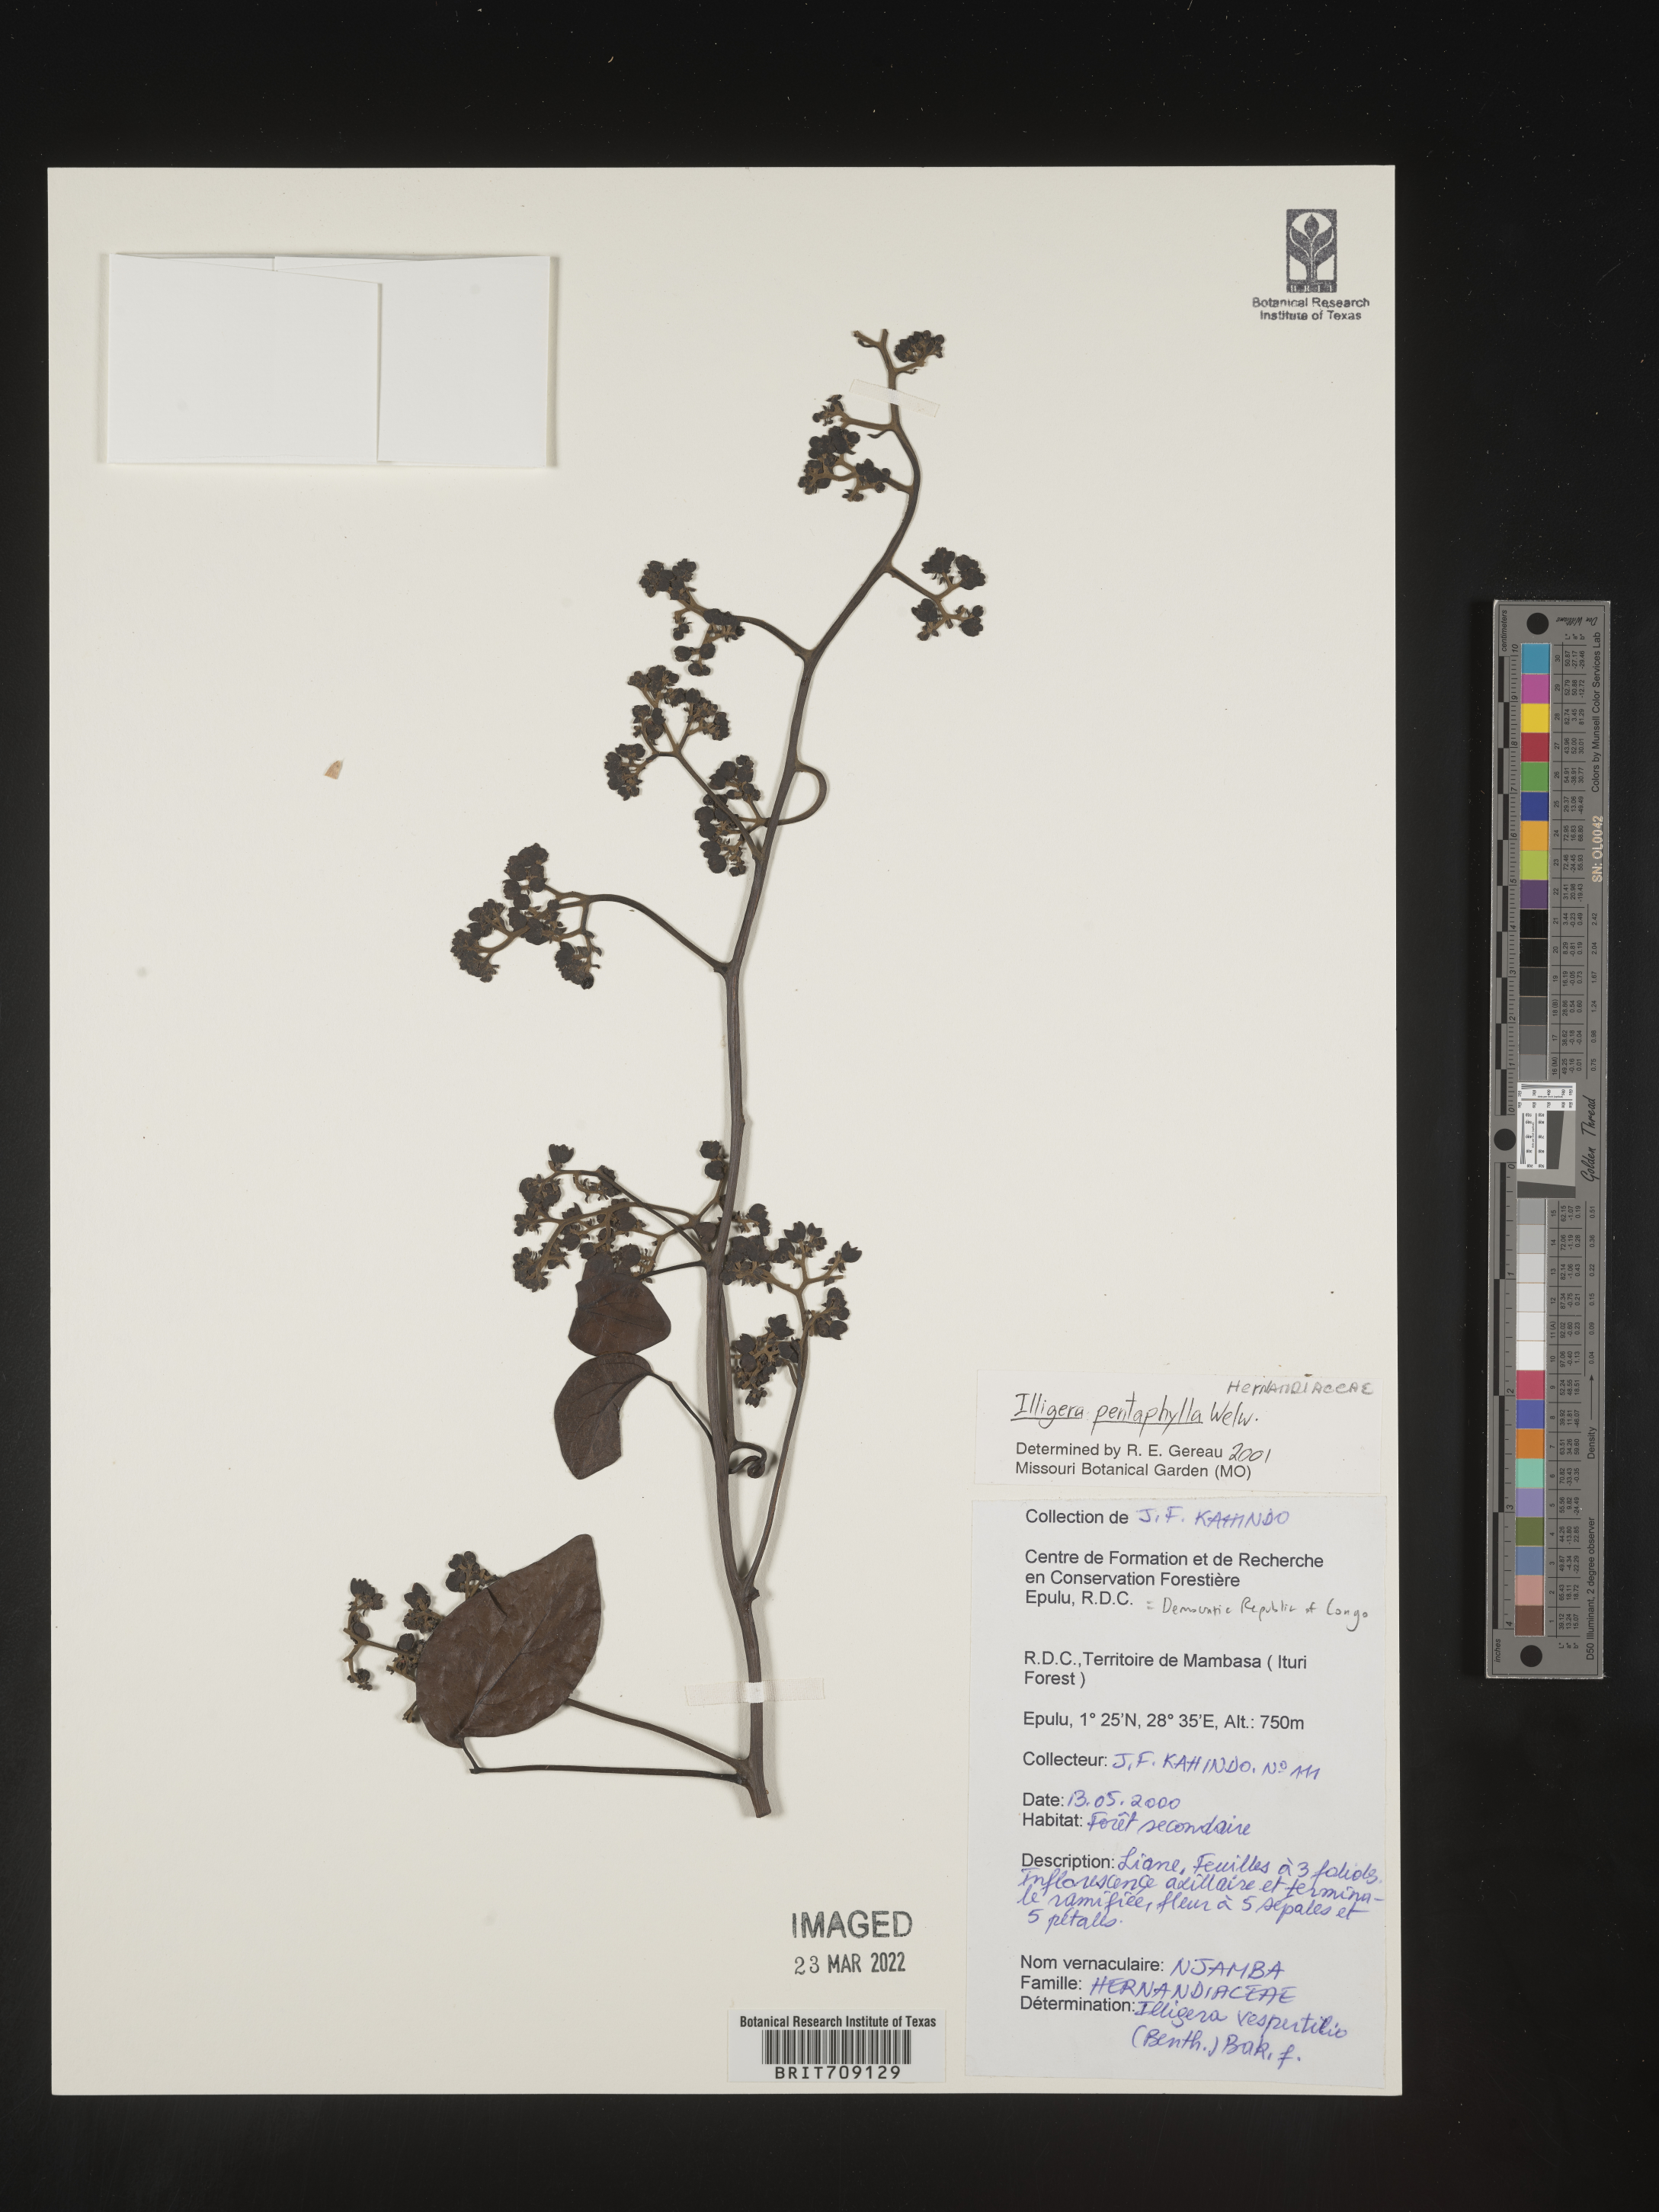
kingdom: Plantae
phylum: Tracheophyta
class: Magnoliopsida
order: Laurales
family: Hernandiaceae
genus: Illigera
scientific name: Illigera
